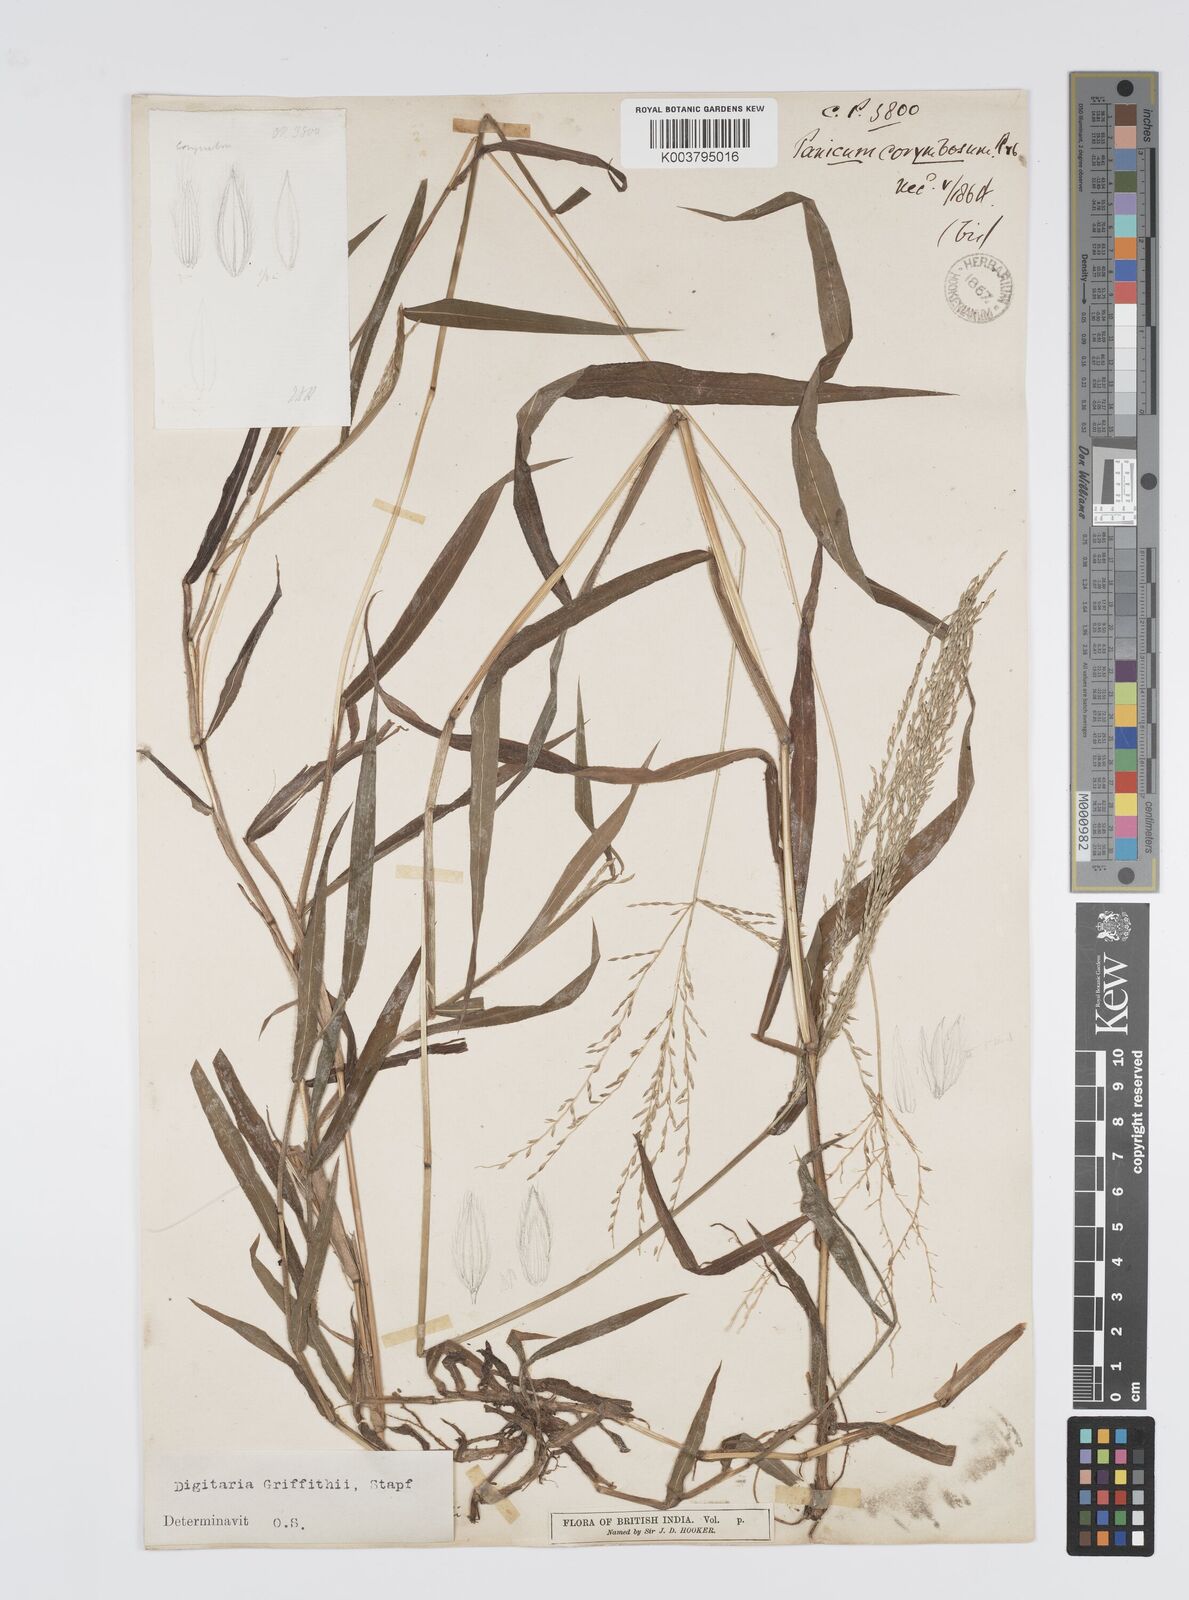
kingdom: Plantae
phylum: Tracheophyta
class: Liliopsida
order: Poales
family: Poaceae
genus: Digitaria
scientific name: Digitaria griffithii
